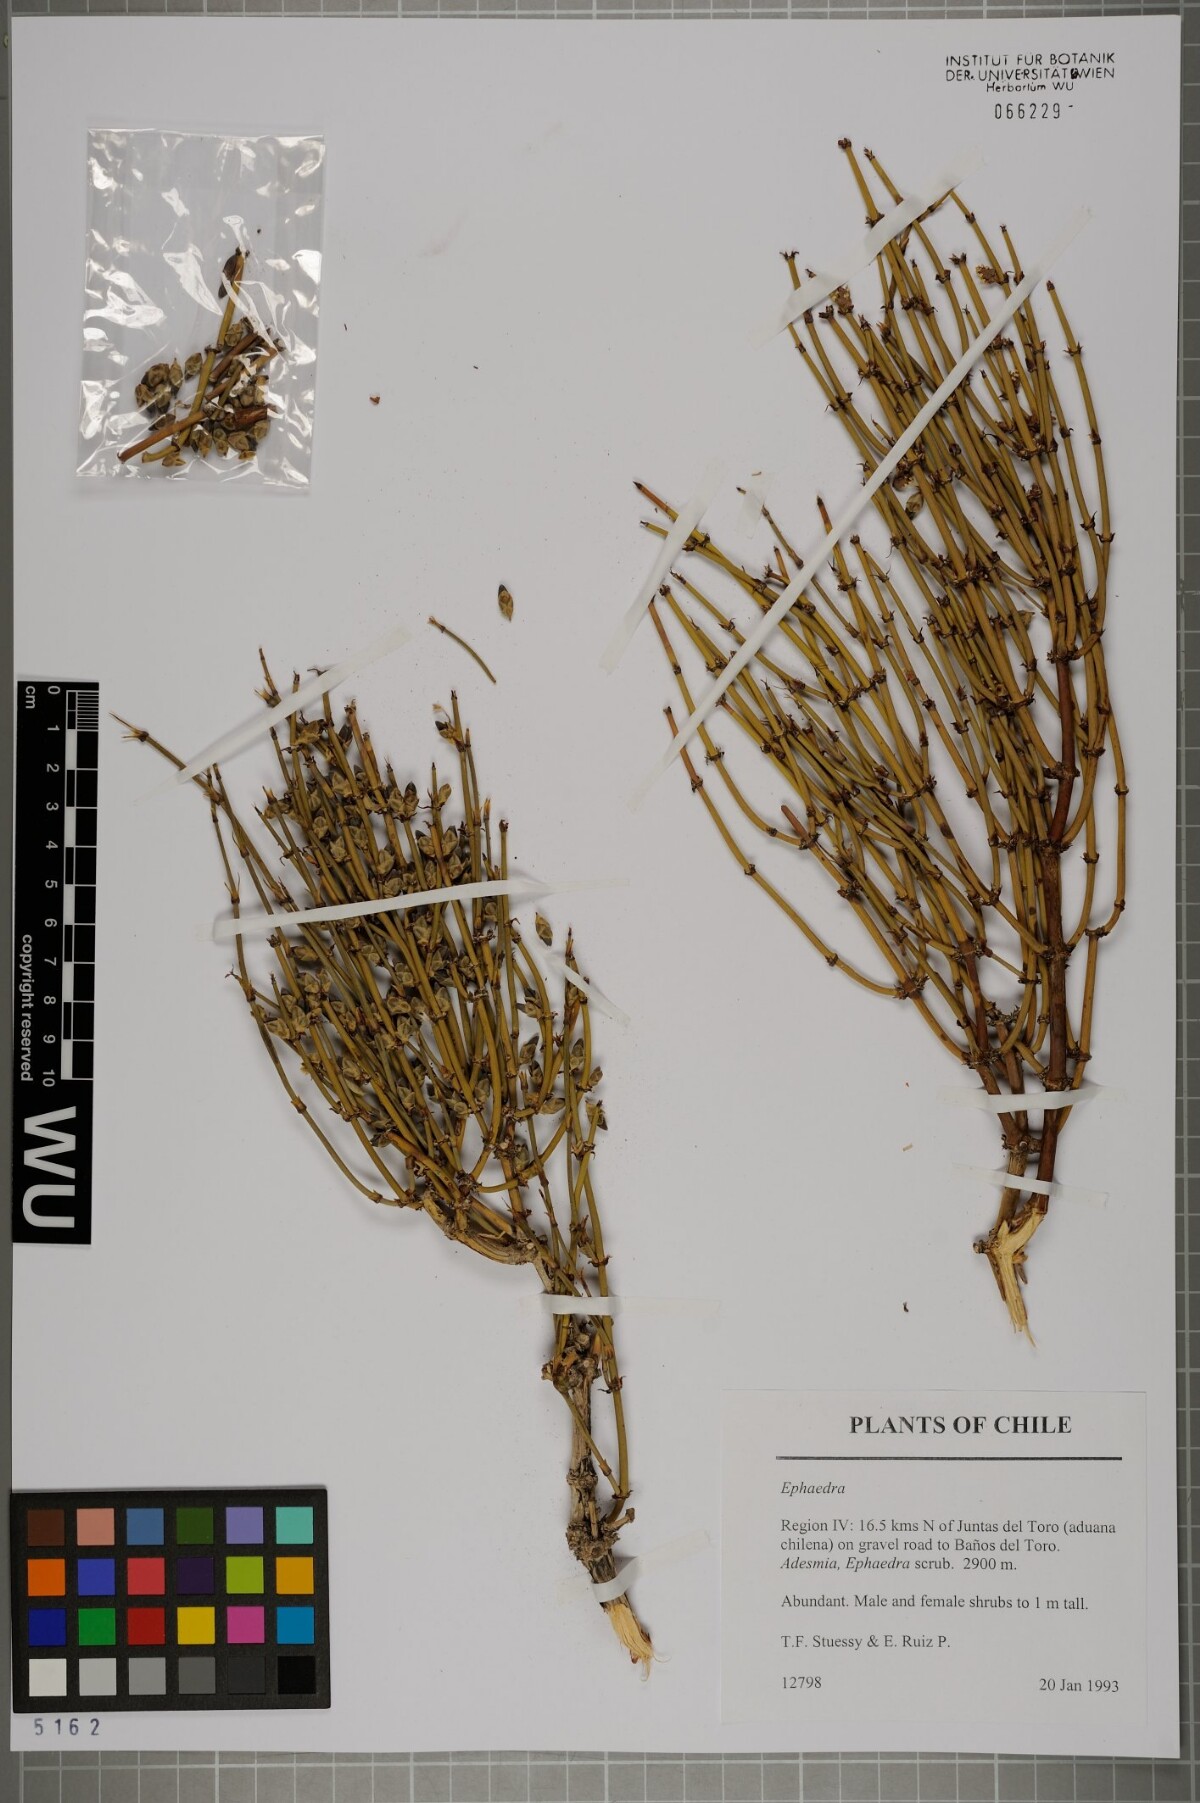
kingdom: Plantae
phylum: Tracheophyta
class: Gnetopsida
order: Ephedrales
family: Ephedraceae
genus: Ephedra
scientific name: Ephedra
